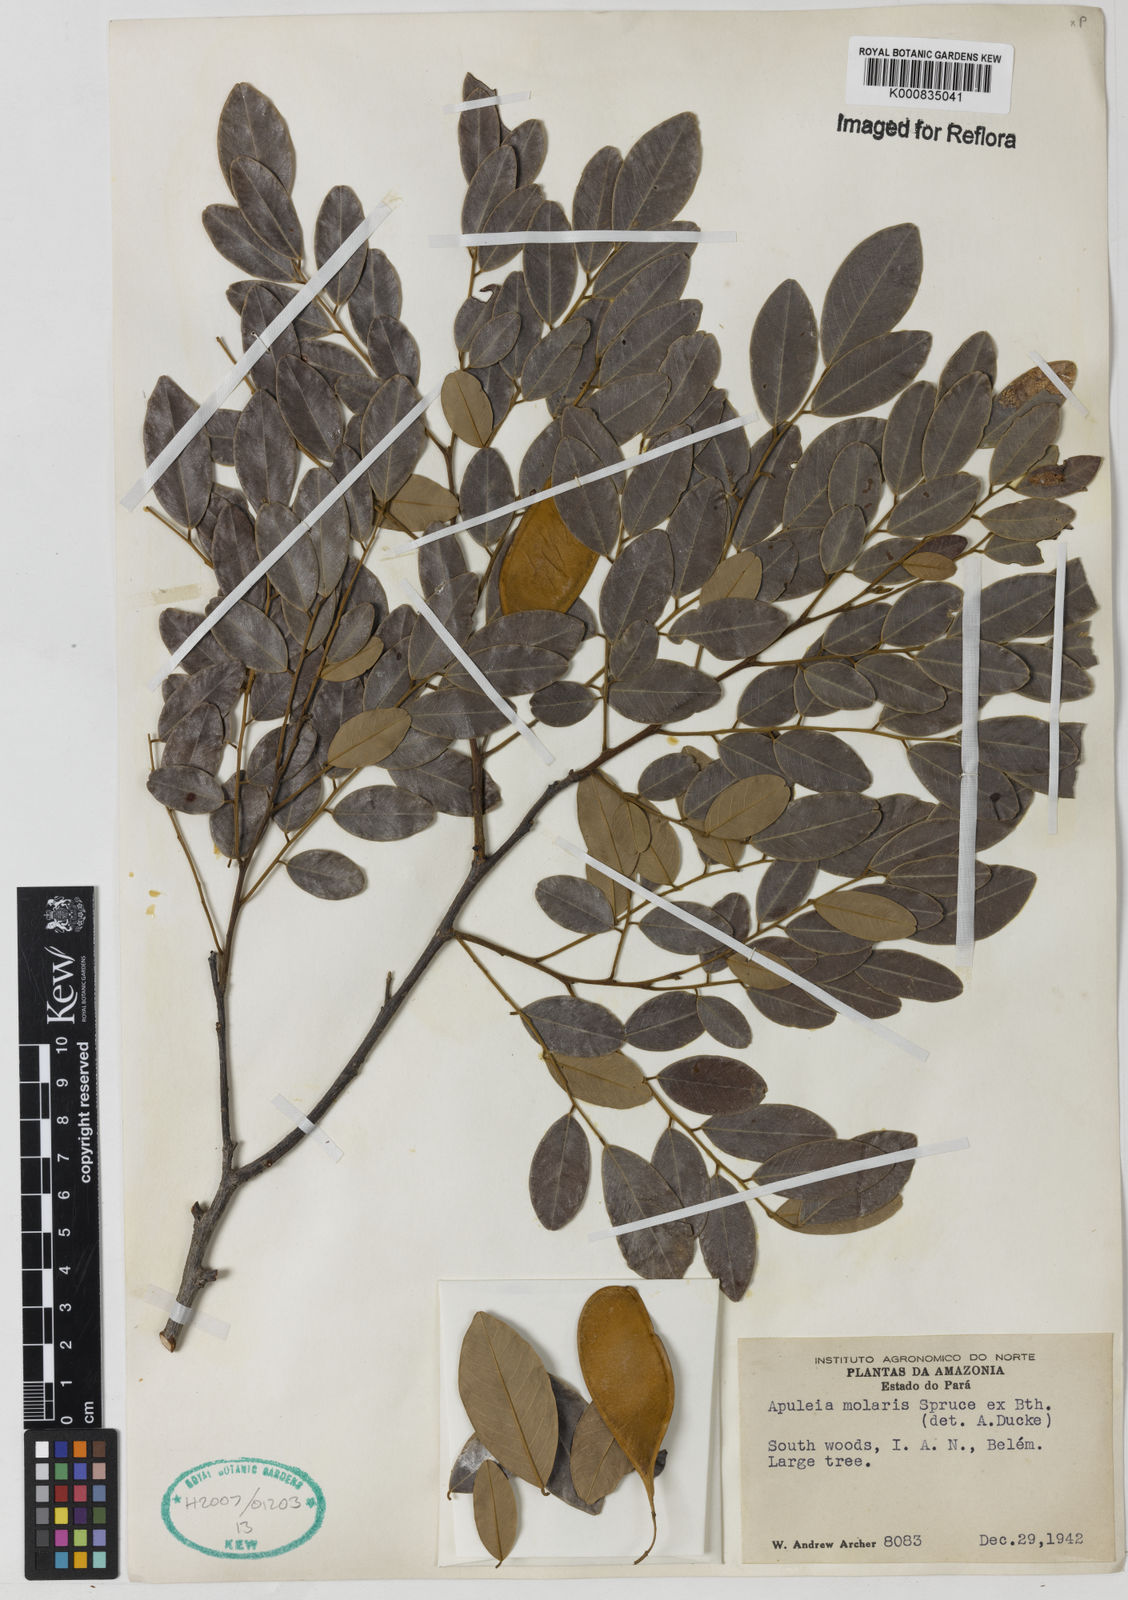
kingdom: Plantae
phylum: Tracheophyta
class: Magnoliopsida
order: Fabales
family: Fabaceae
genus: Apuleia
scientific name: Apuleia leiocarpa
